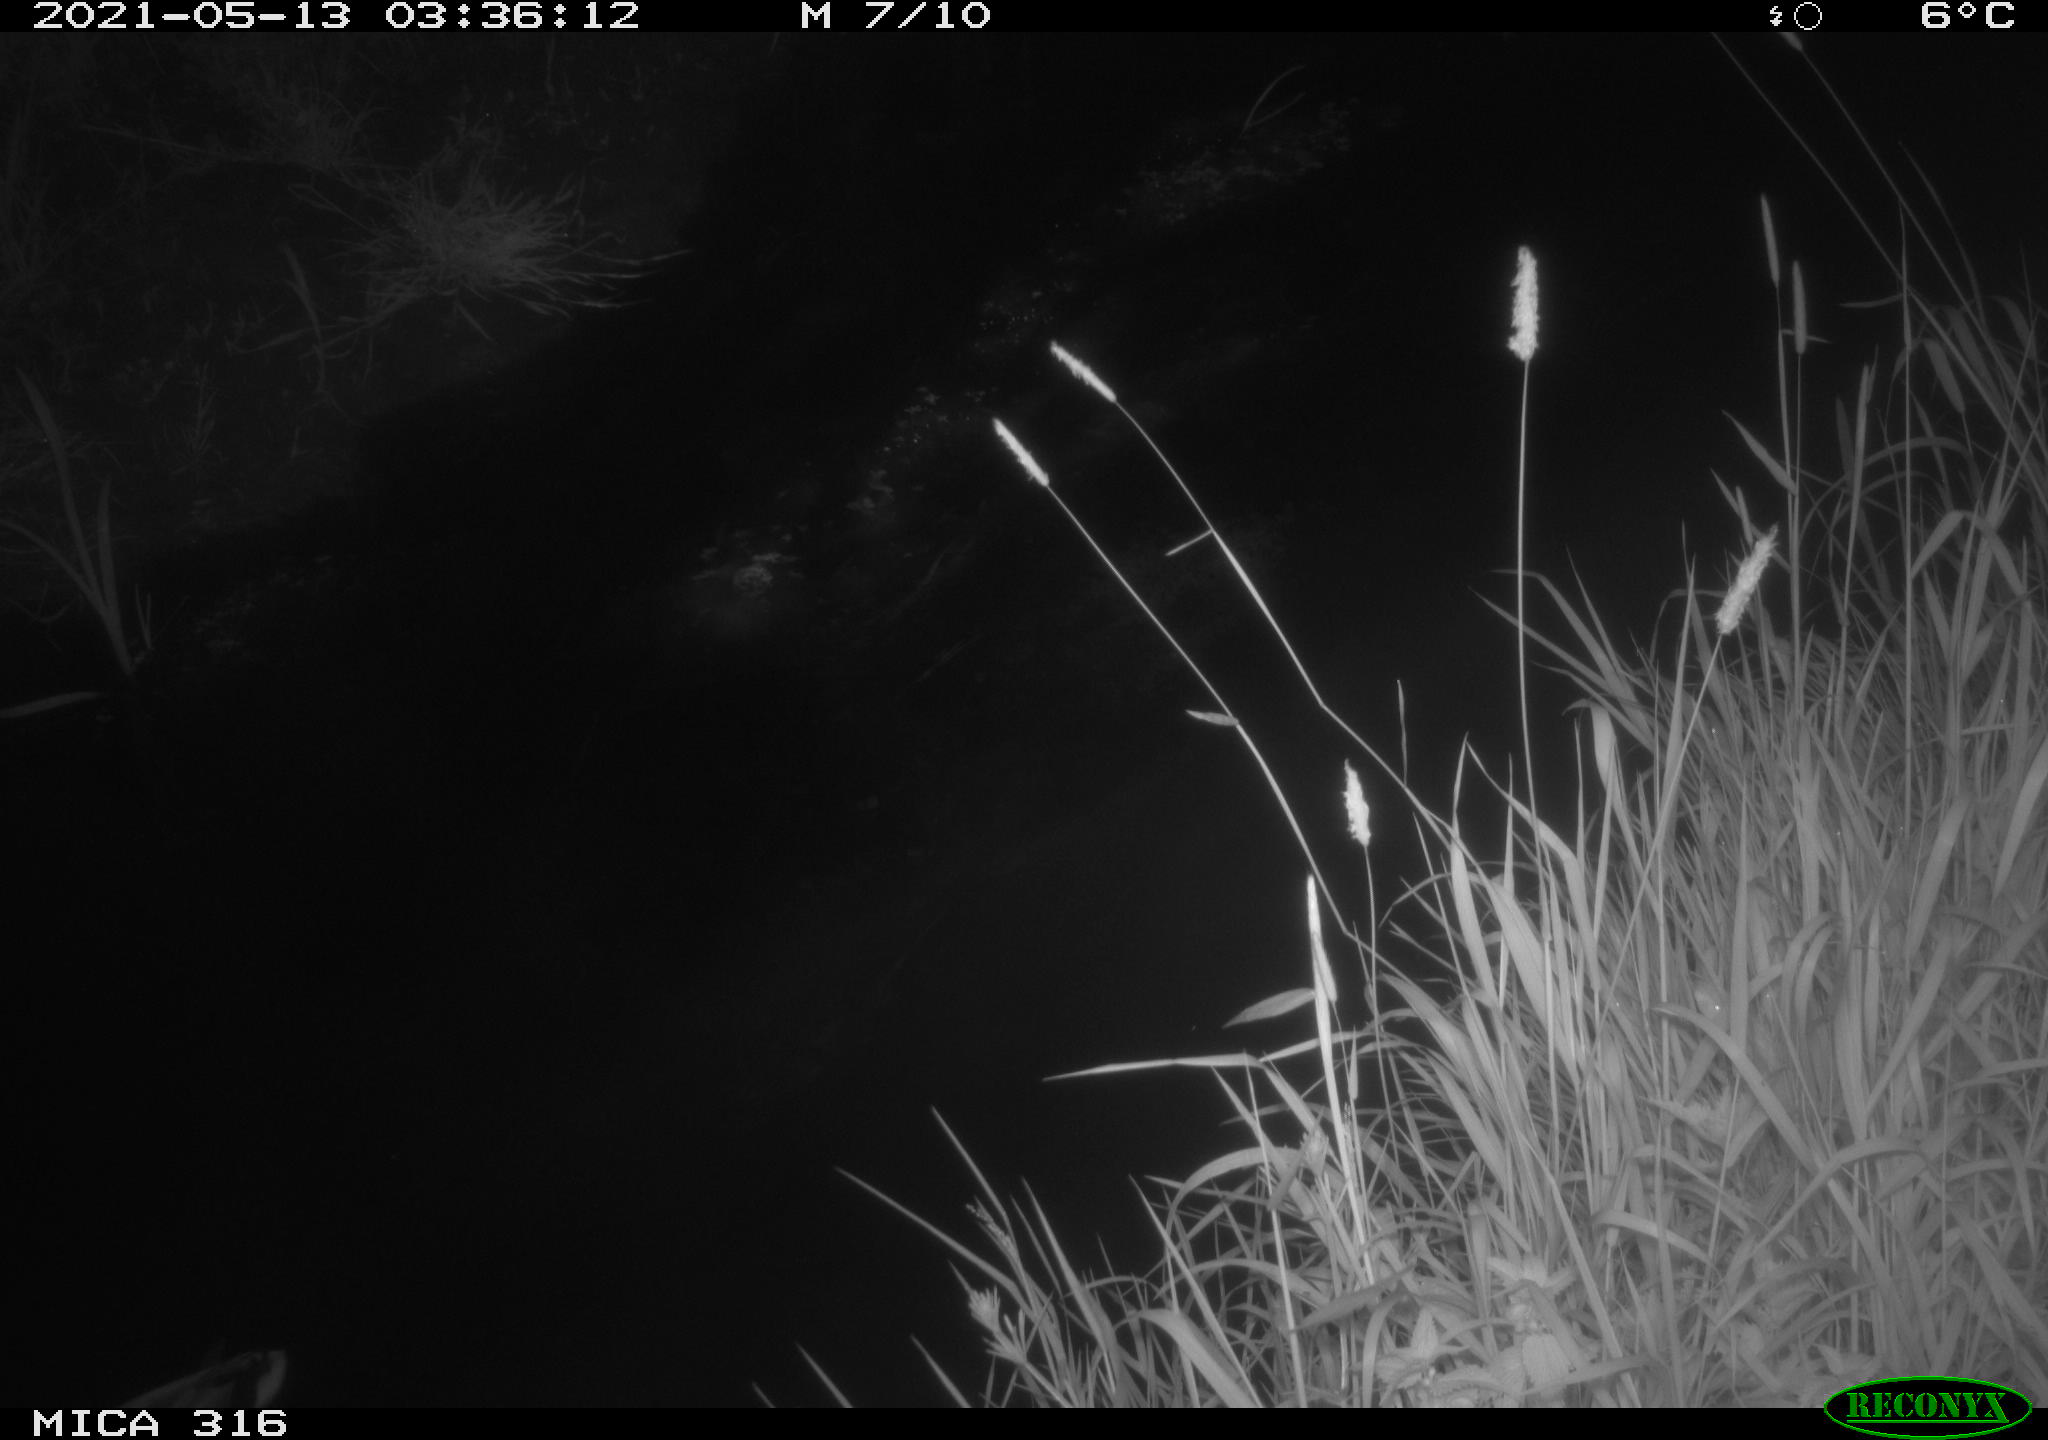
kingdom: Animalia
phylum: Chordata
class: Aves
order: Anseriformes
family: Anatidae
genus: Anas
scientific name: Anas platyrhynchos
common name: Mallard
